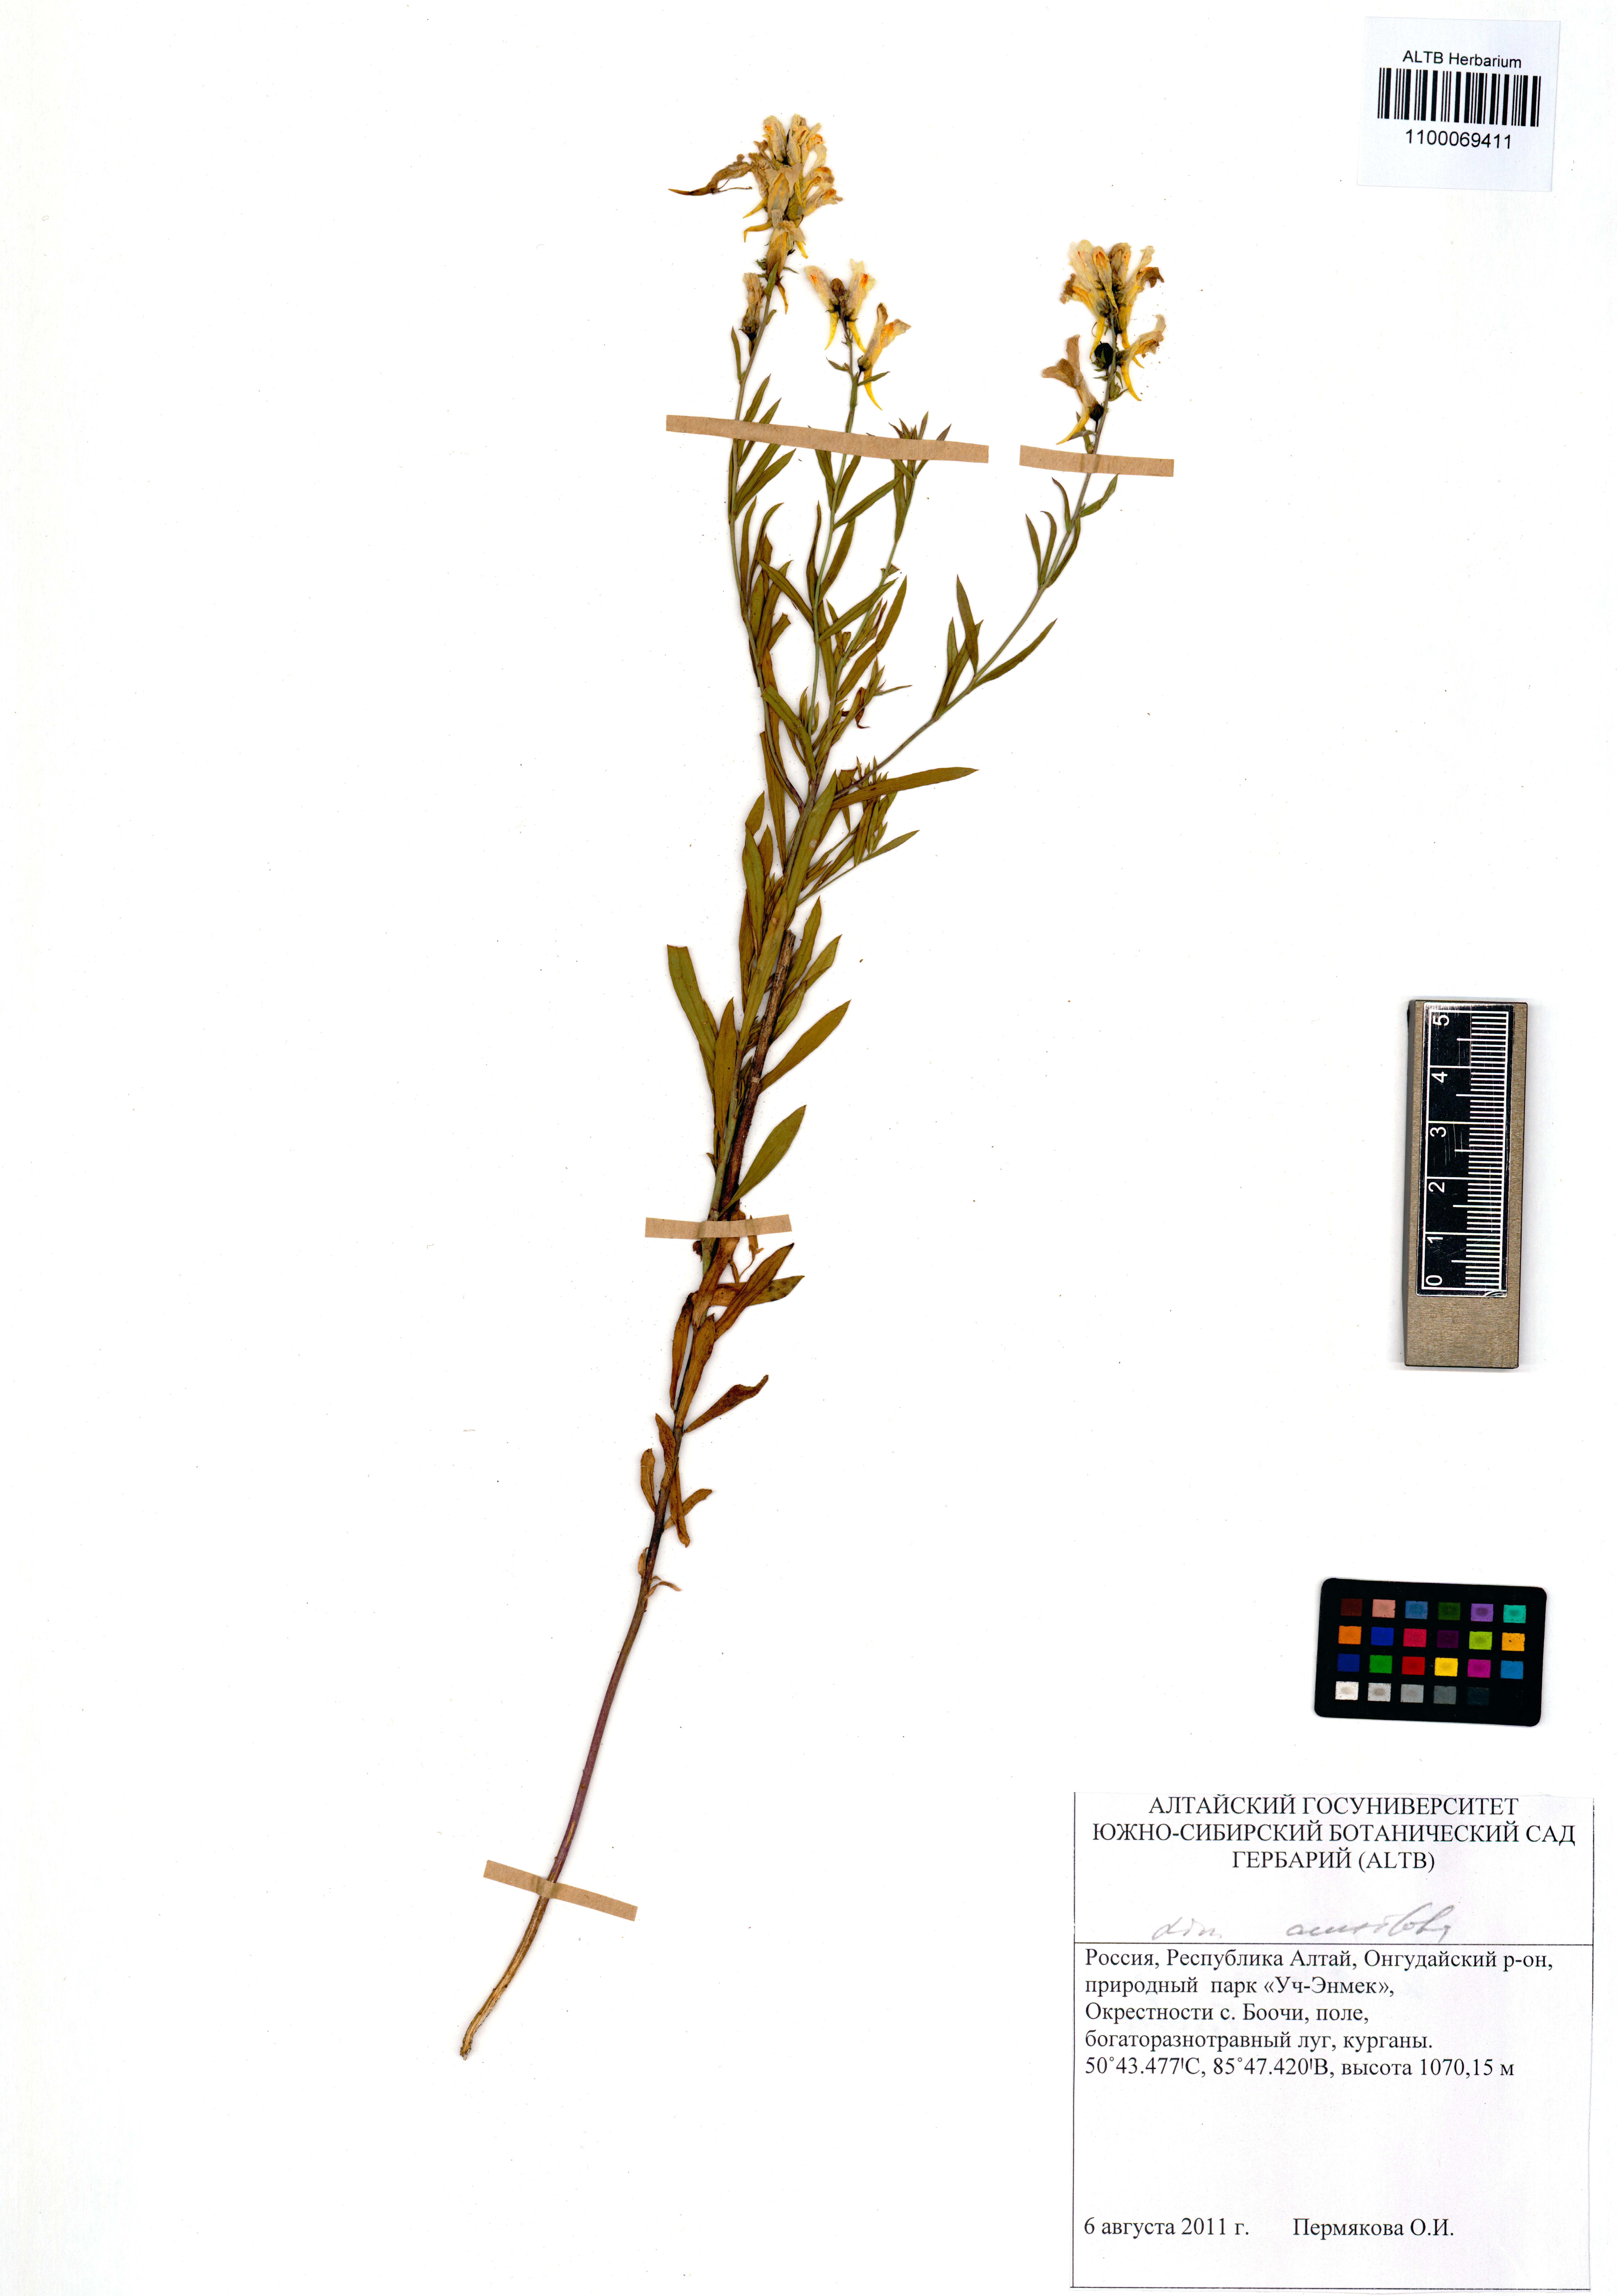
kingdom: Plantae
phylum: Tracheophyta
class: Magnoliopsida
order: Lamiales
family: Plantaginaceae
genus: Linaria
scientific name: Linaria acutiloba
